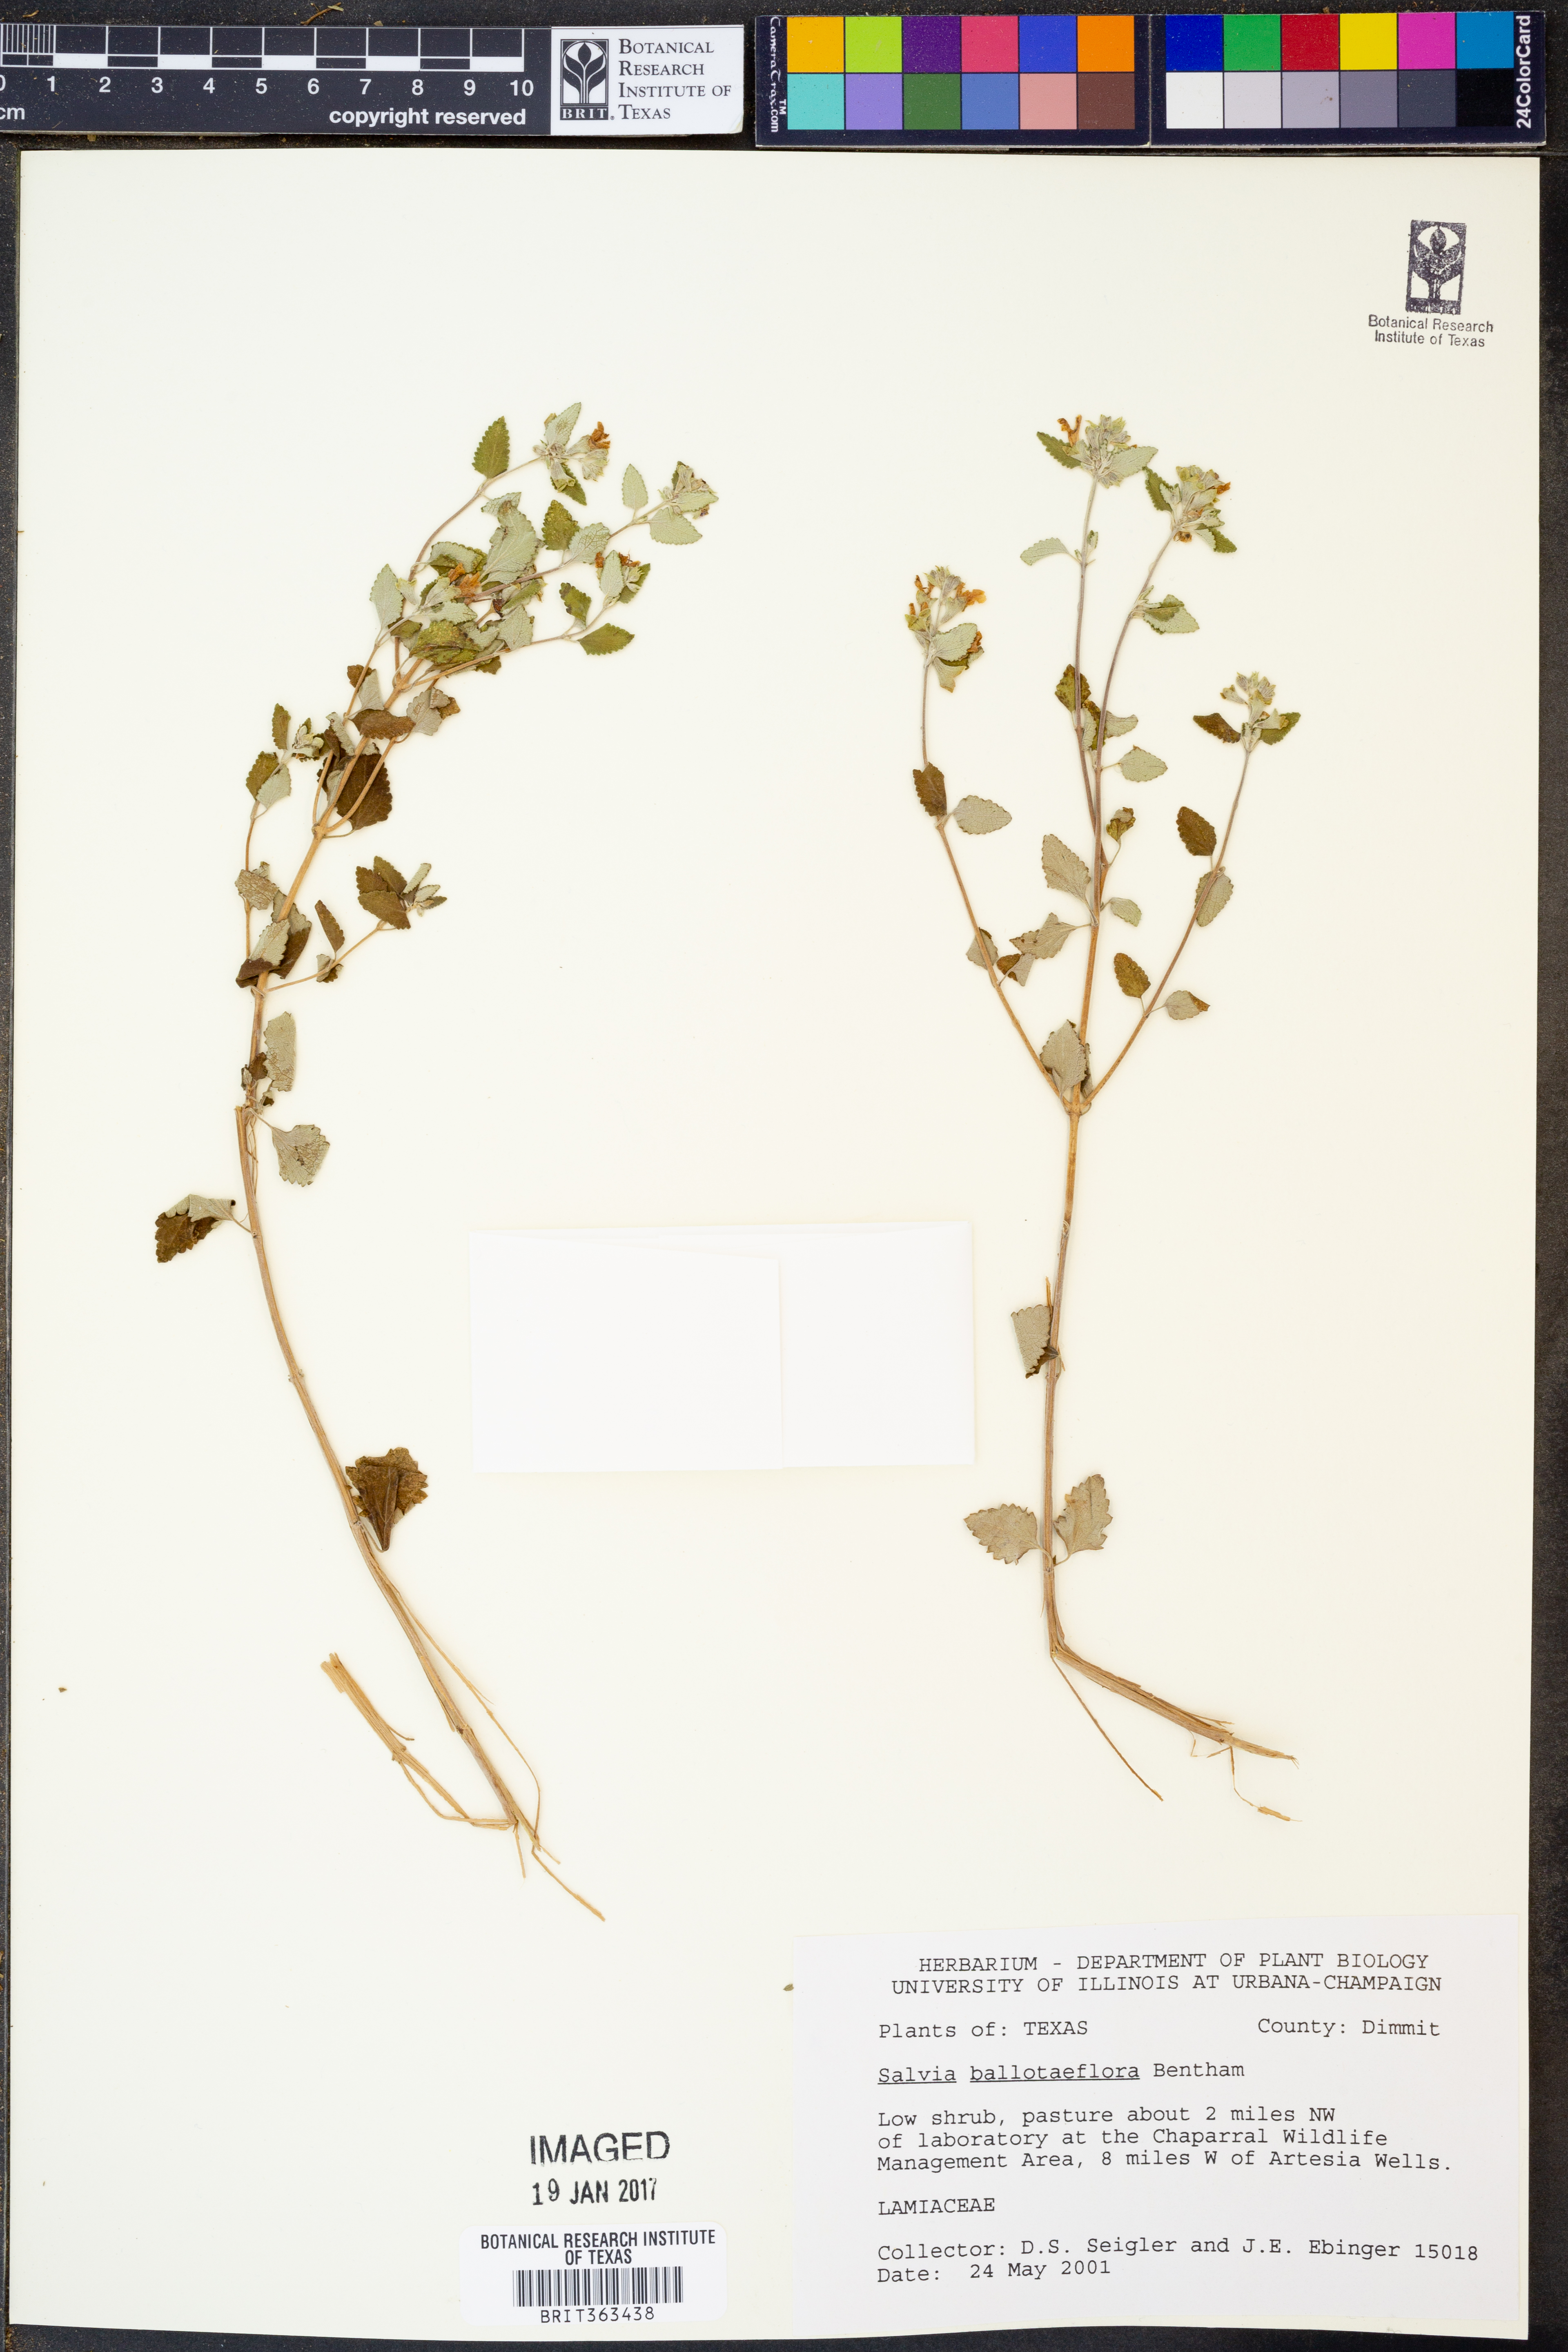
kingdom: Plantae
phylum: Tracheophyta
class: Magnoliopsida
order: Lamiales
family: Lamiaceae
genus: Salvia
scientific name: Salvia ballotiflora
